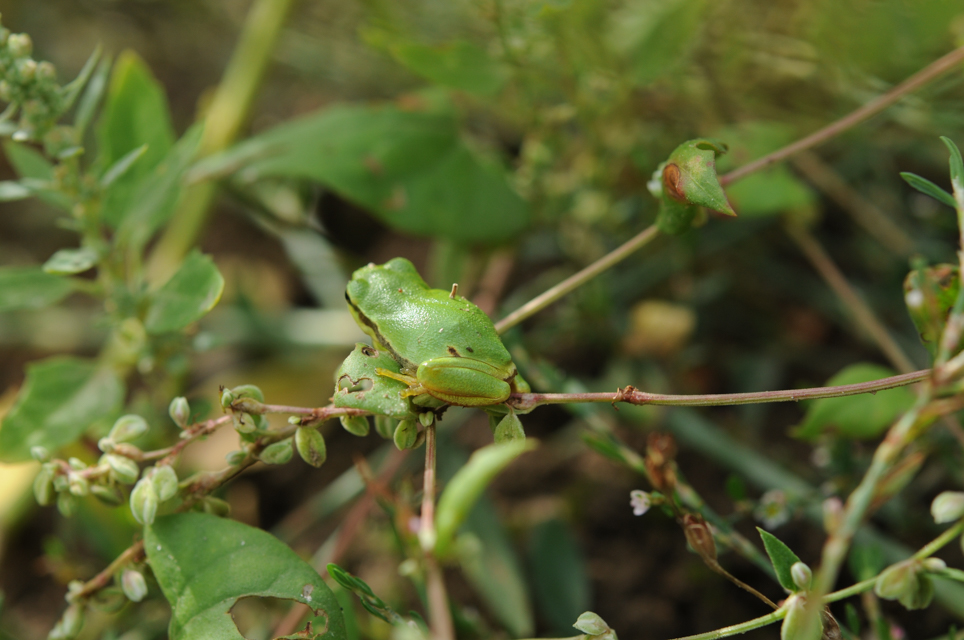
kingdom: Animalia
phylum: Chordata
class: Amphibia
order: Anura
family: Hylidae
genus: Hyla
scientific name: Hyla arborea
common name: Common tree frog
